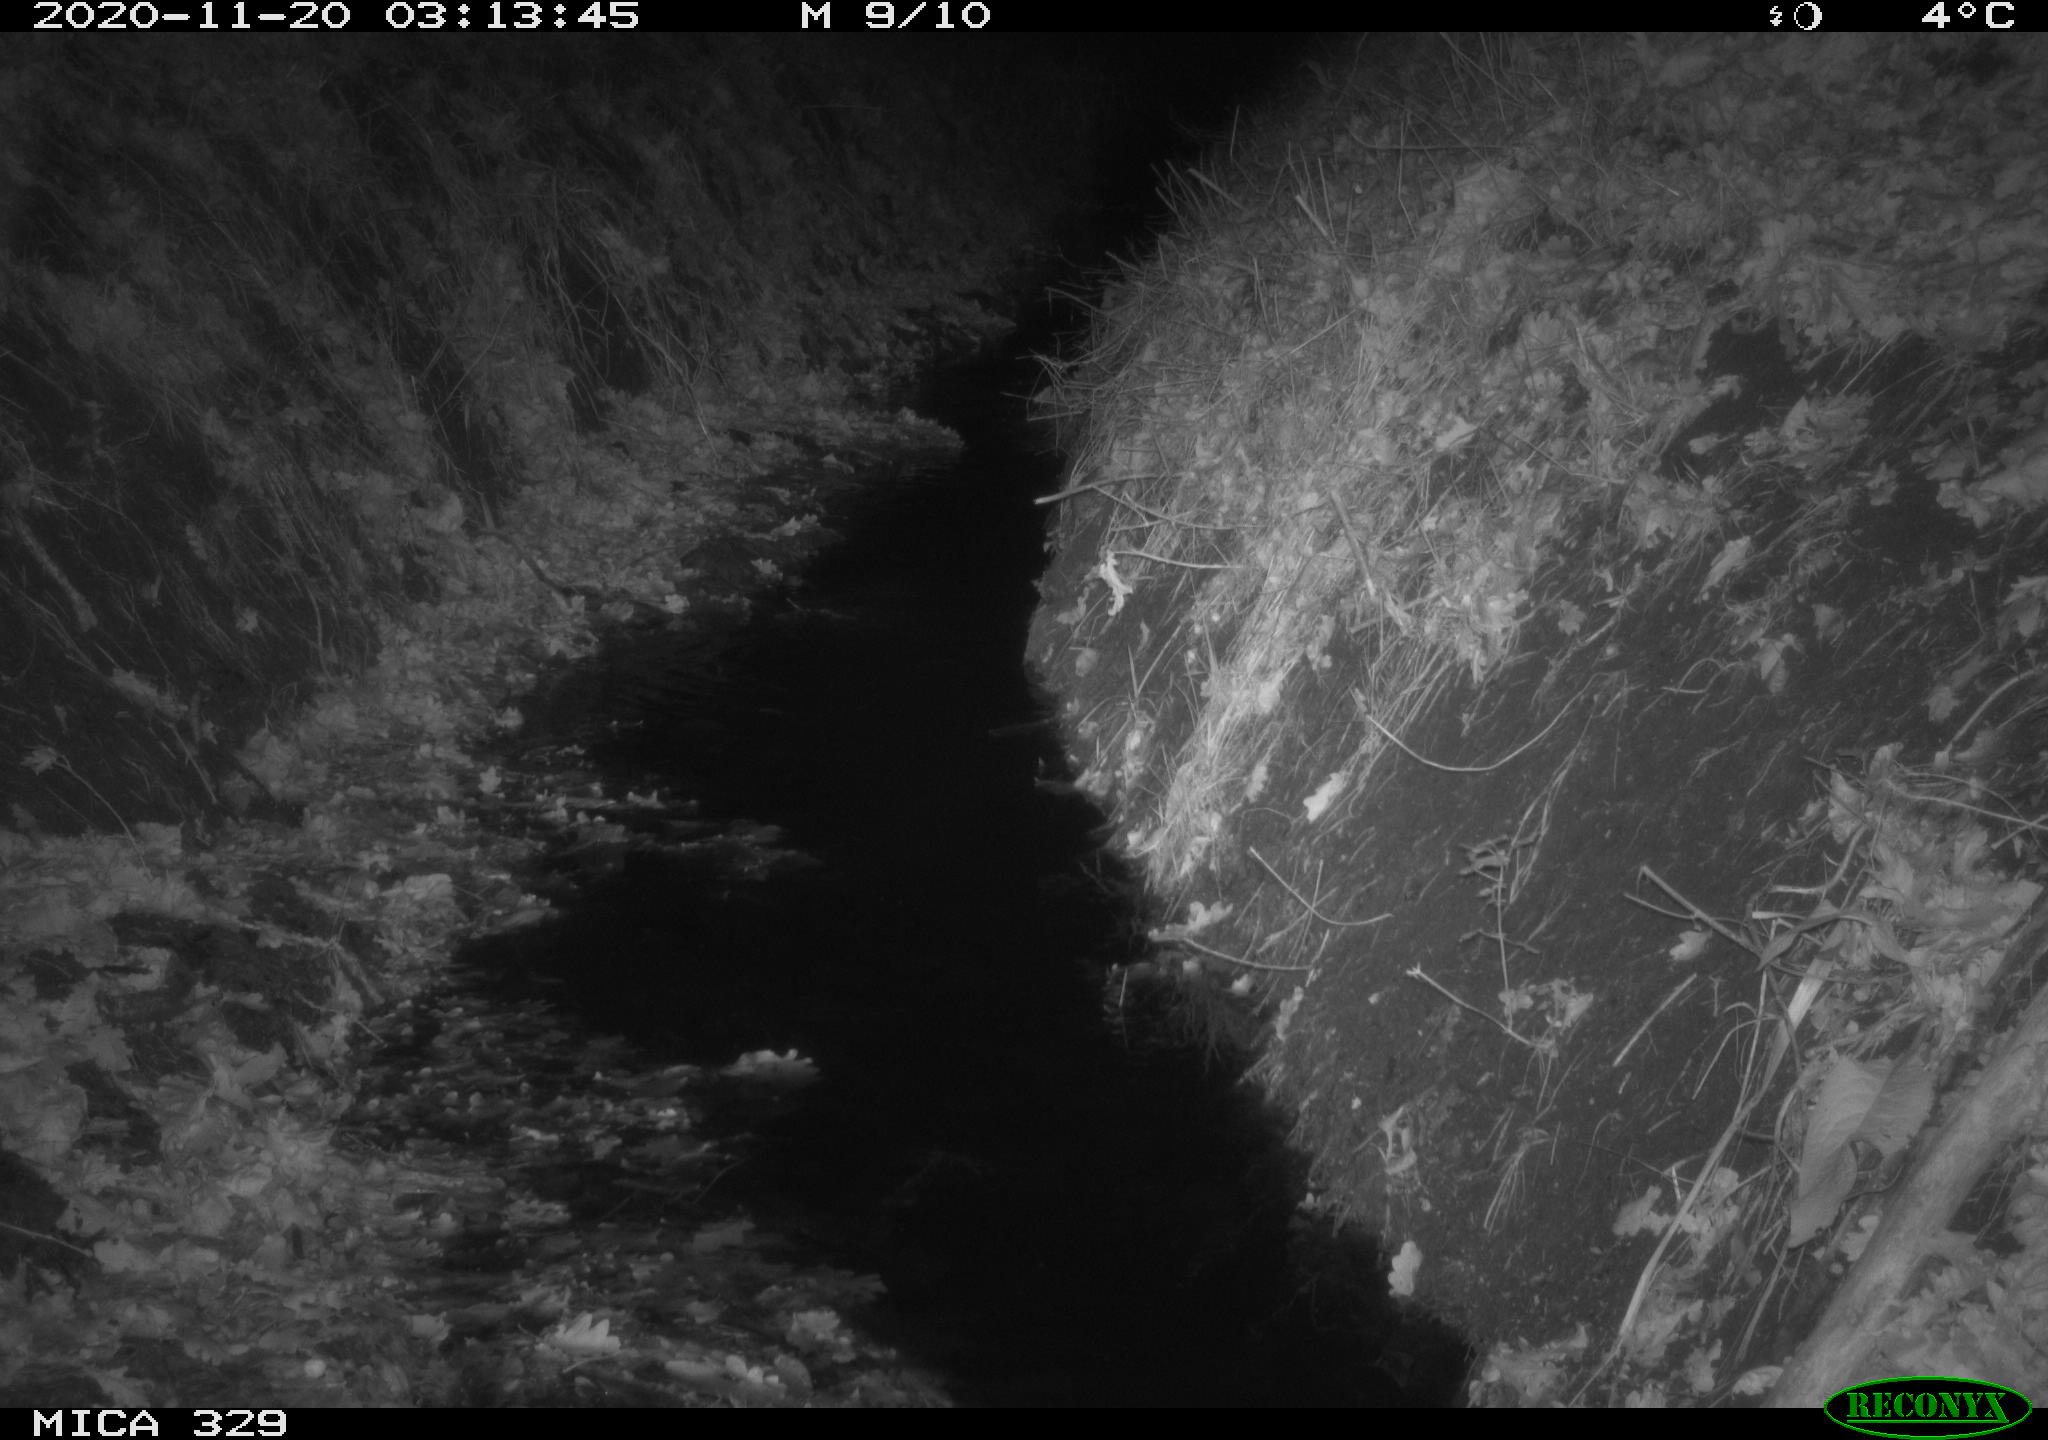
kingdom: Animalia
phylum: Chordata
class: Mammalia
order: Rodentia
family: Muridae
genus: Rattus
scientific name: Rattus norvegicus
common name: Brown rat
